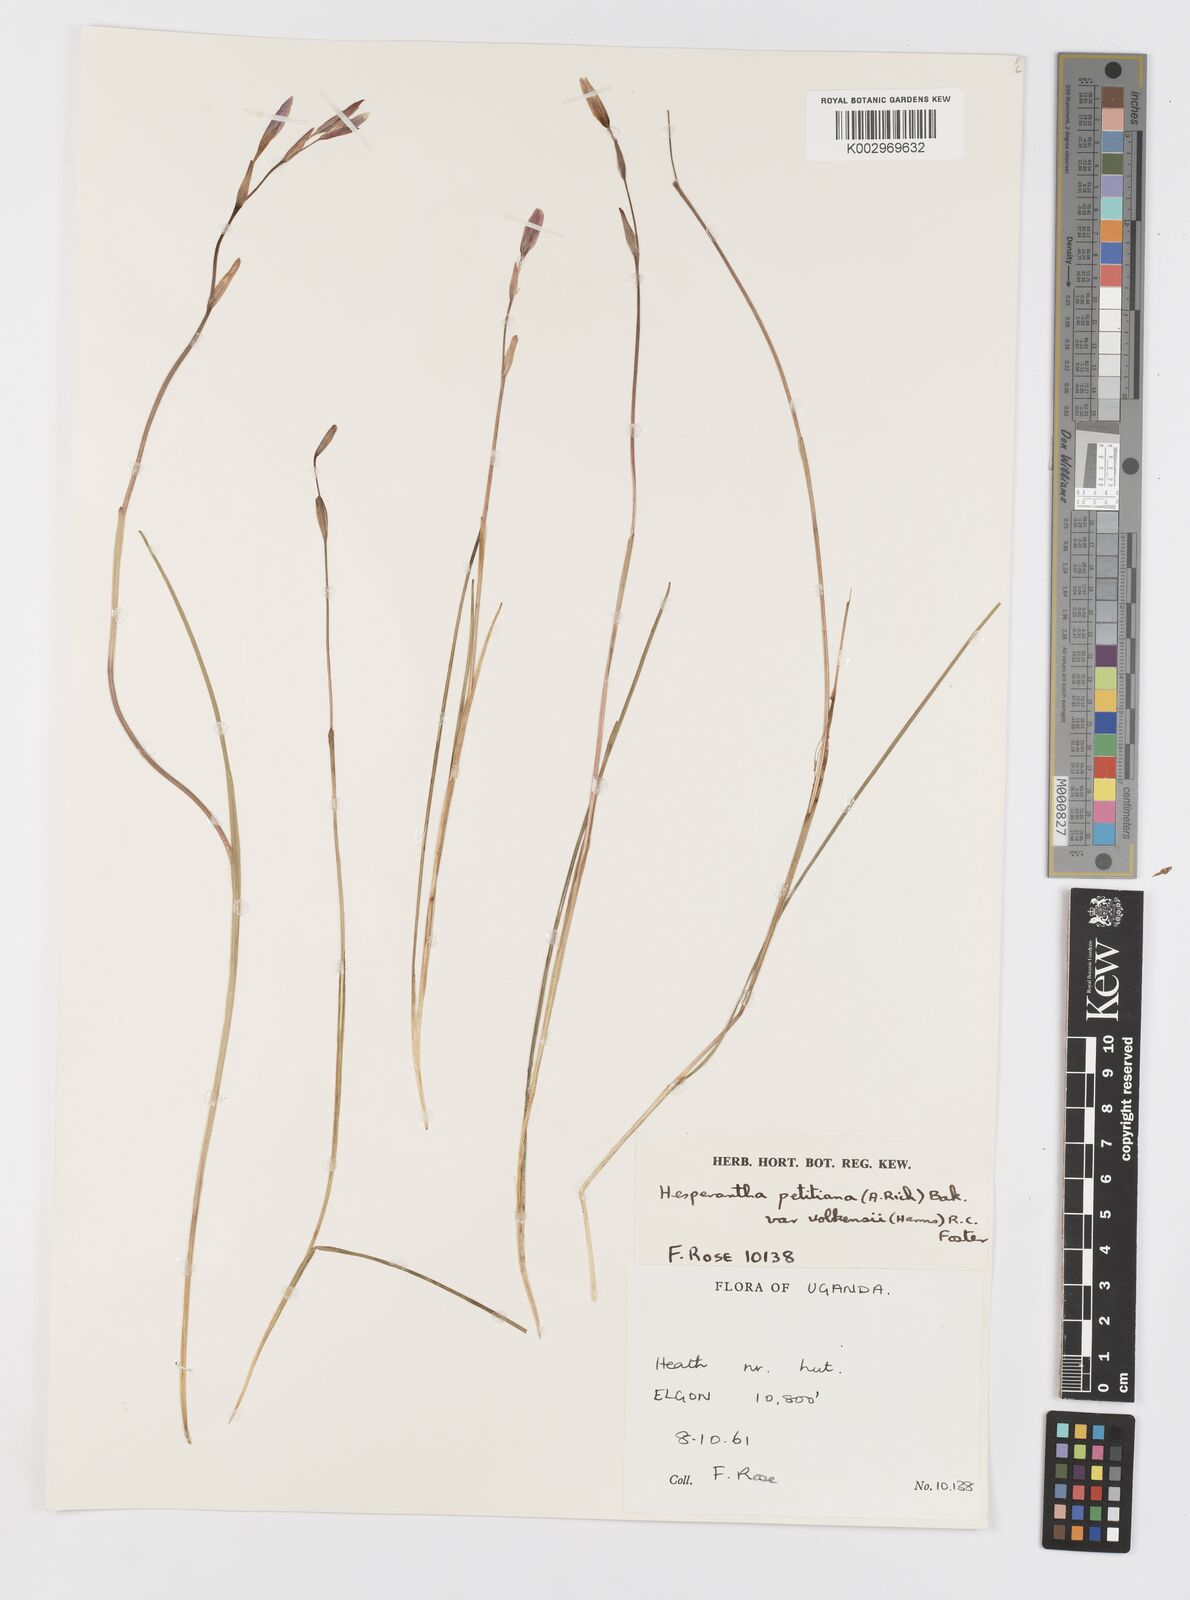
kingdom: Plantae
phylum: Tracheophyta
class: Liliopsida
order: Asparagales
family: Iridaceae
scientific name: Iridaceae
